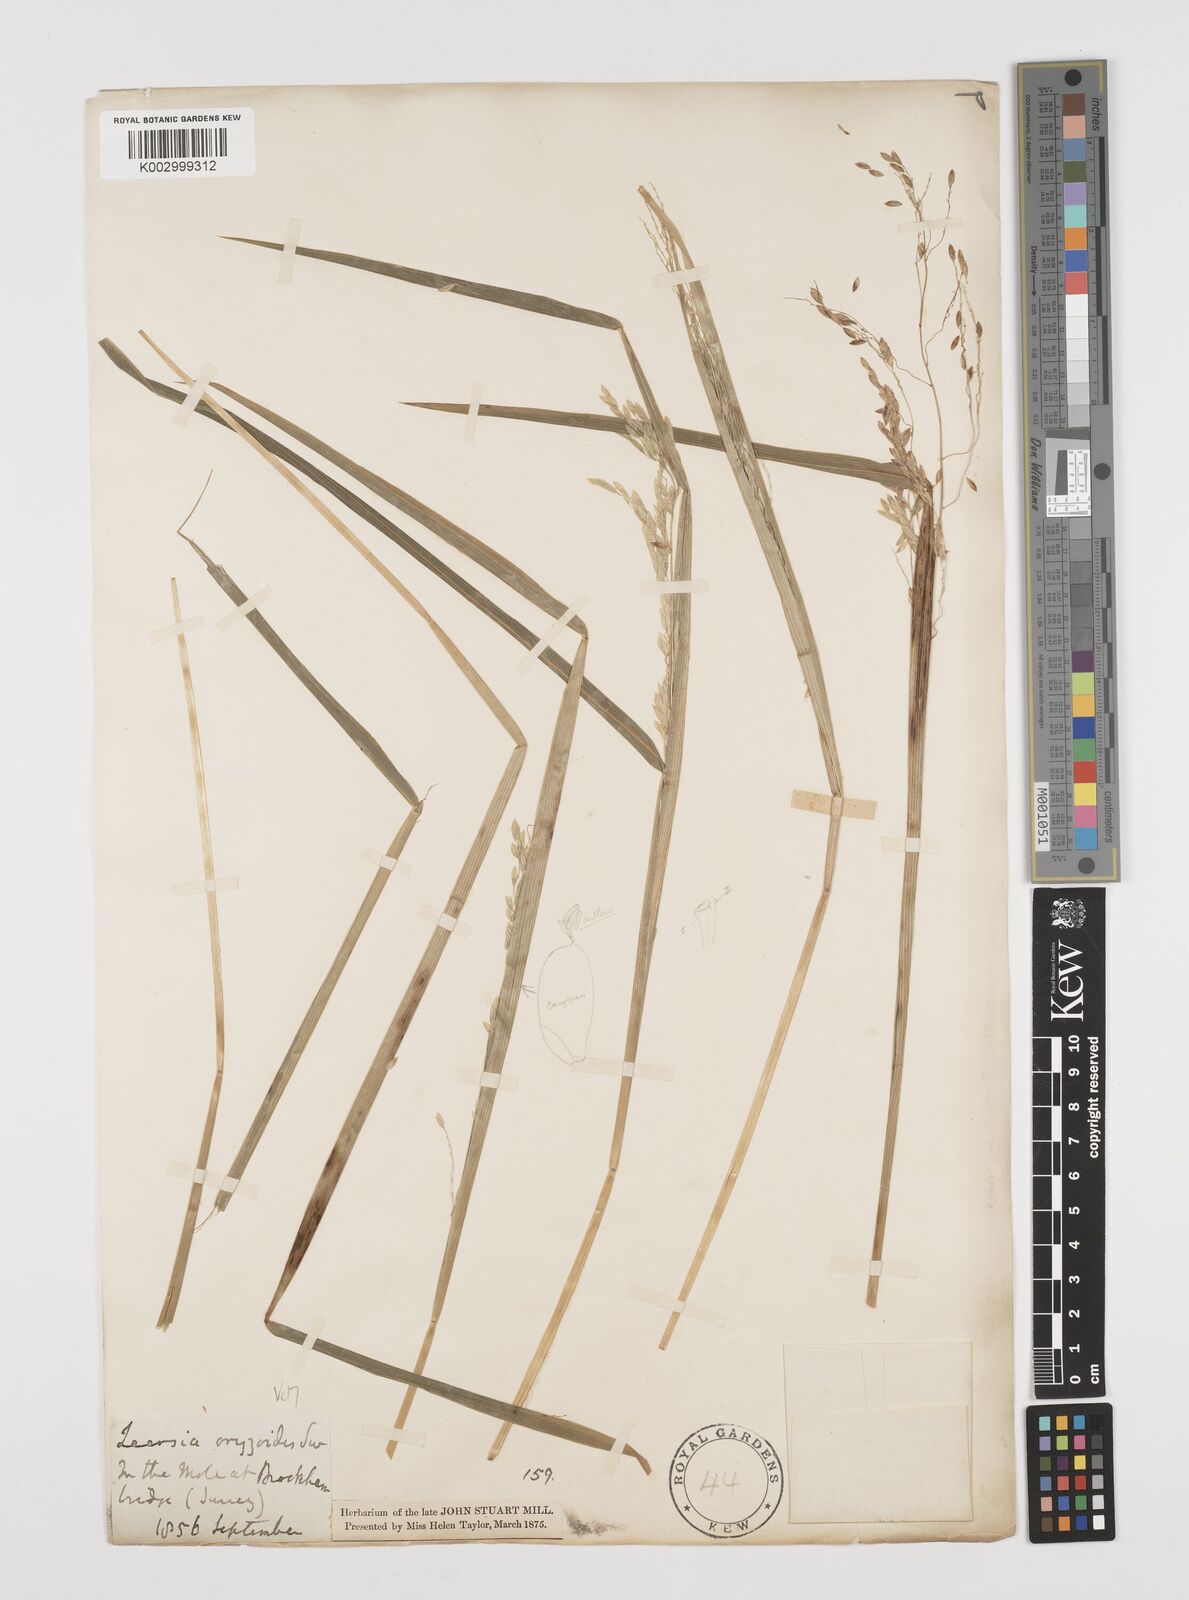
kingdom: Plantae
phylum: Tracheophyta
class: Liliopsida
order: Poales
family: Poaceae
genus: Leersia
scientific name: Leersia oryzoides
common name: Cut-grass
